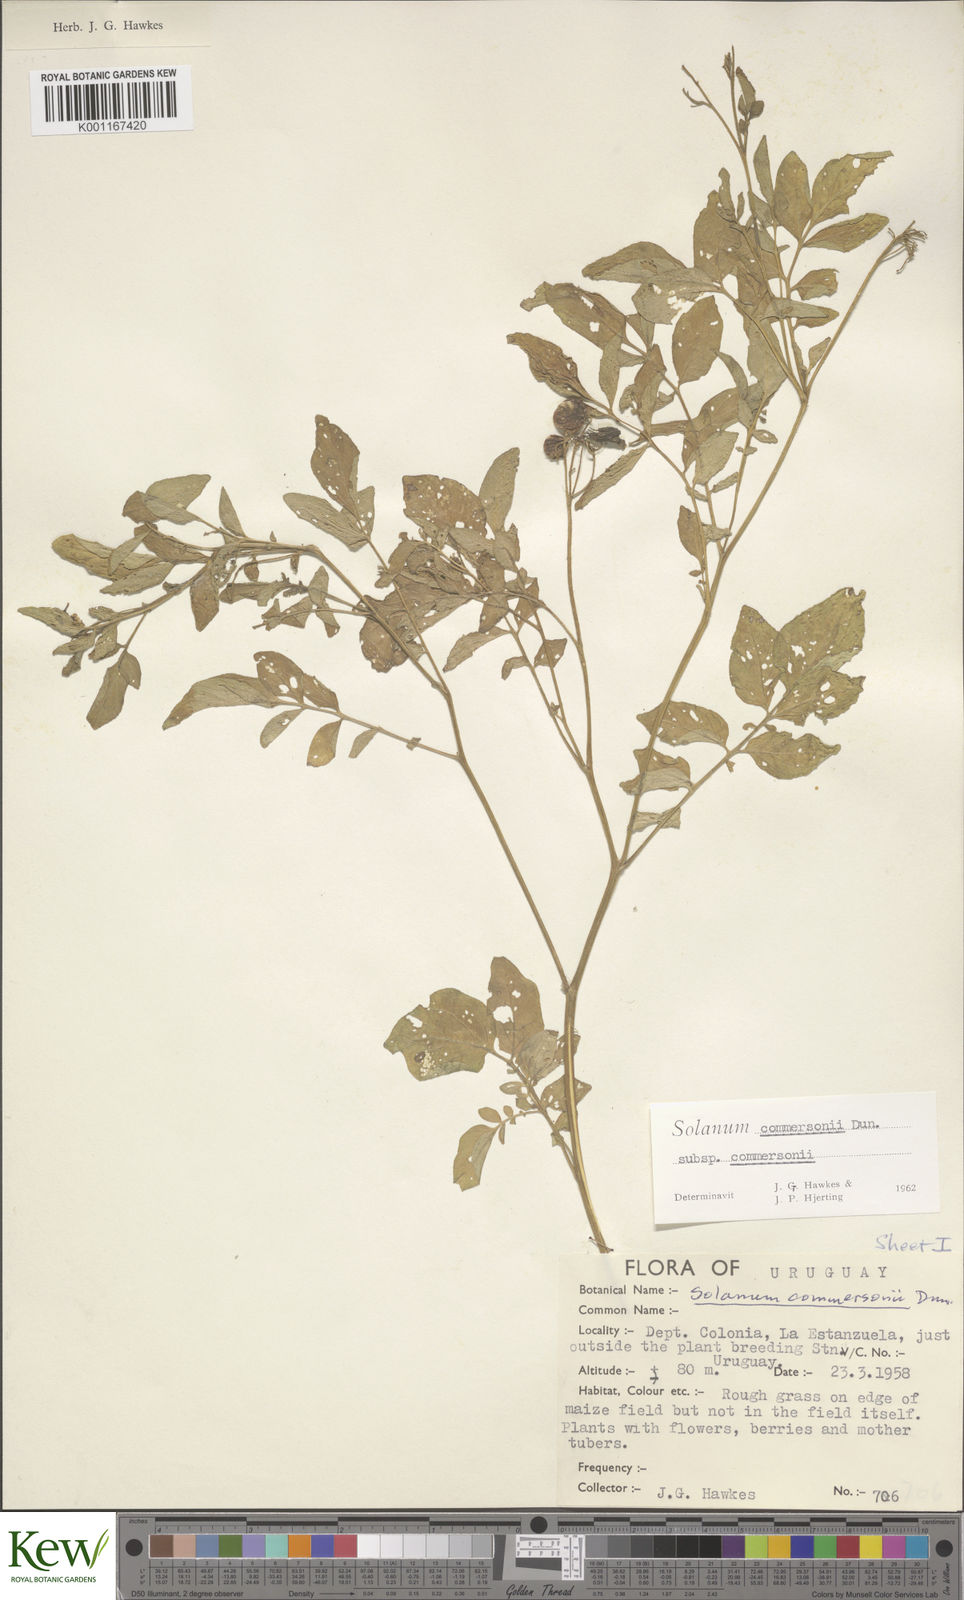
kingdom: Plantae
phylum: Tracheophyta
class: Magnoliopsida
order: Solanales
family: Solanaceae
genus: Solanum
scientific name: Solanum commersonii
